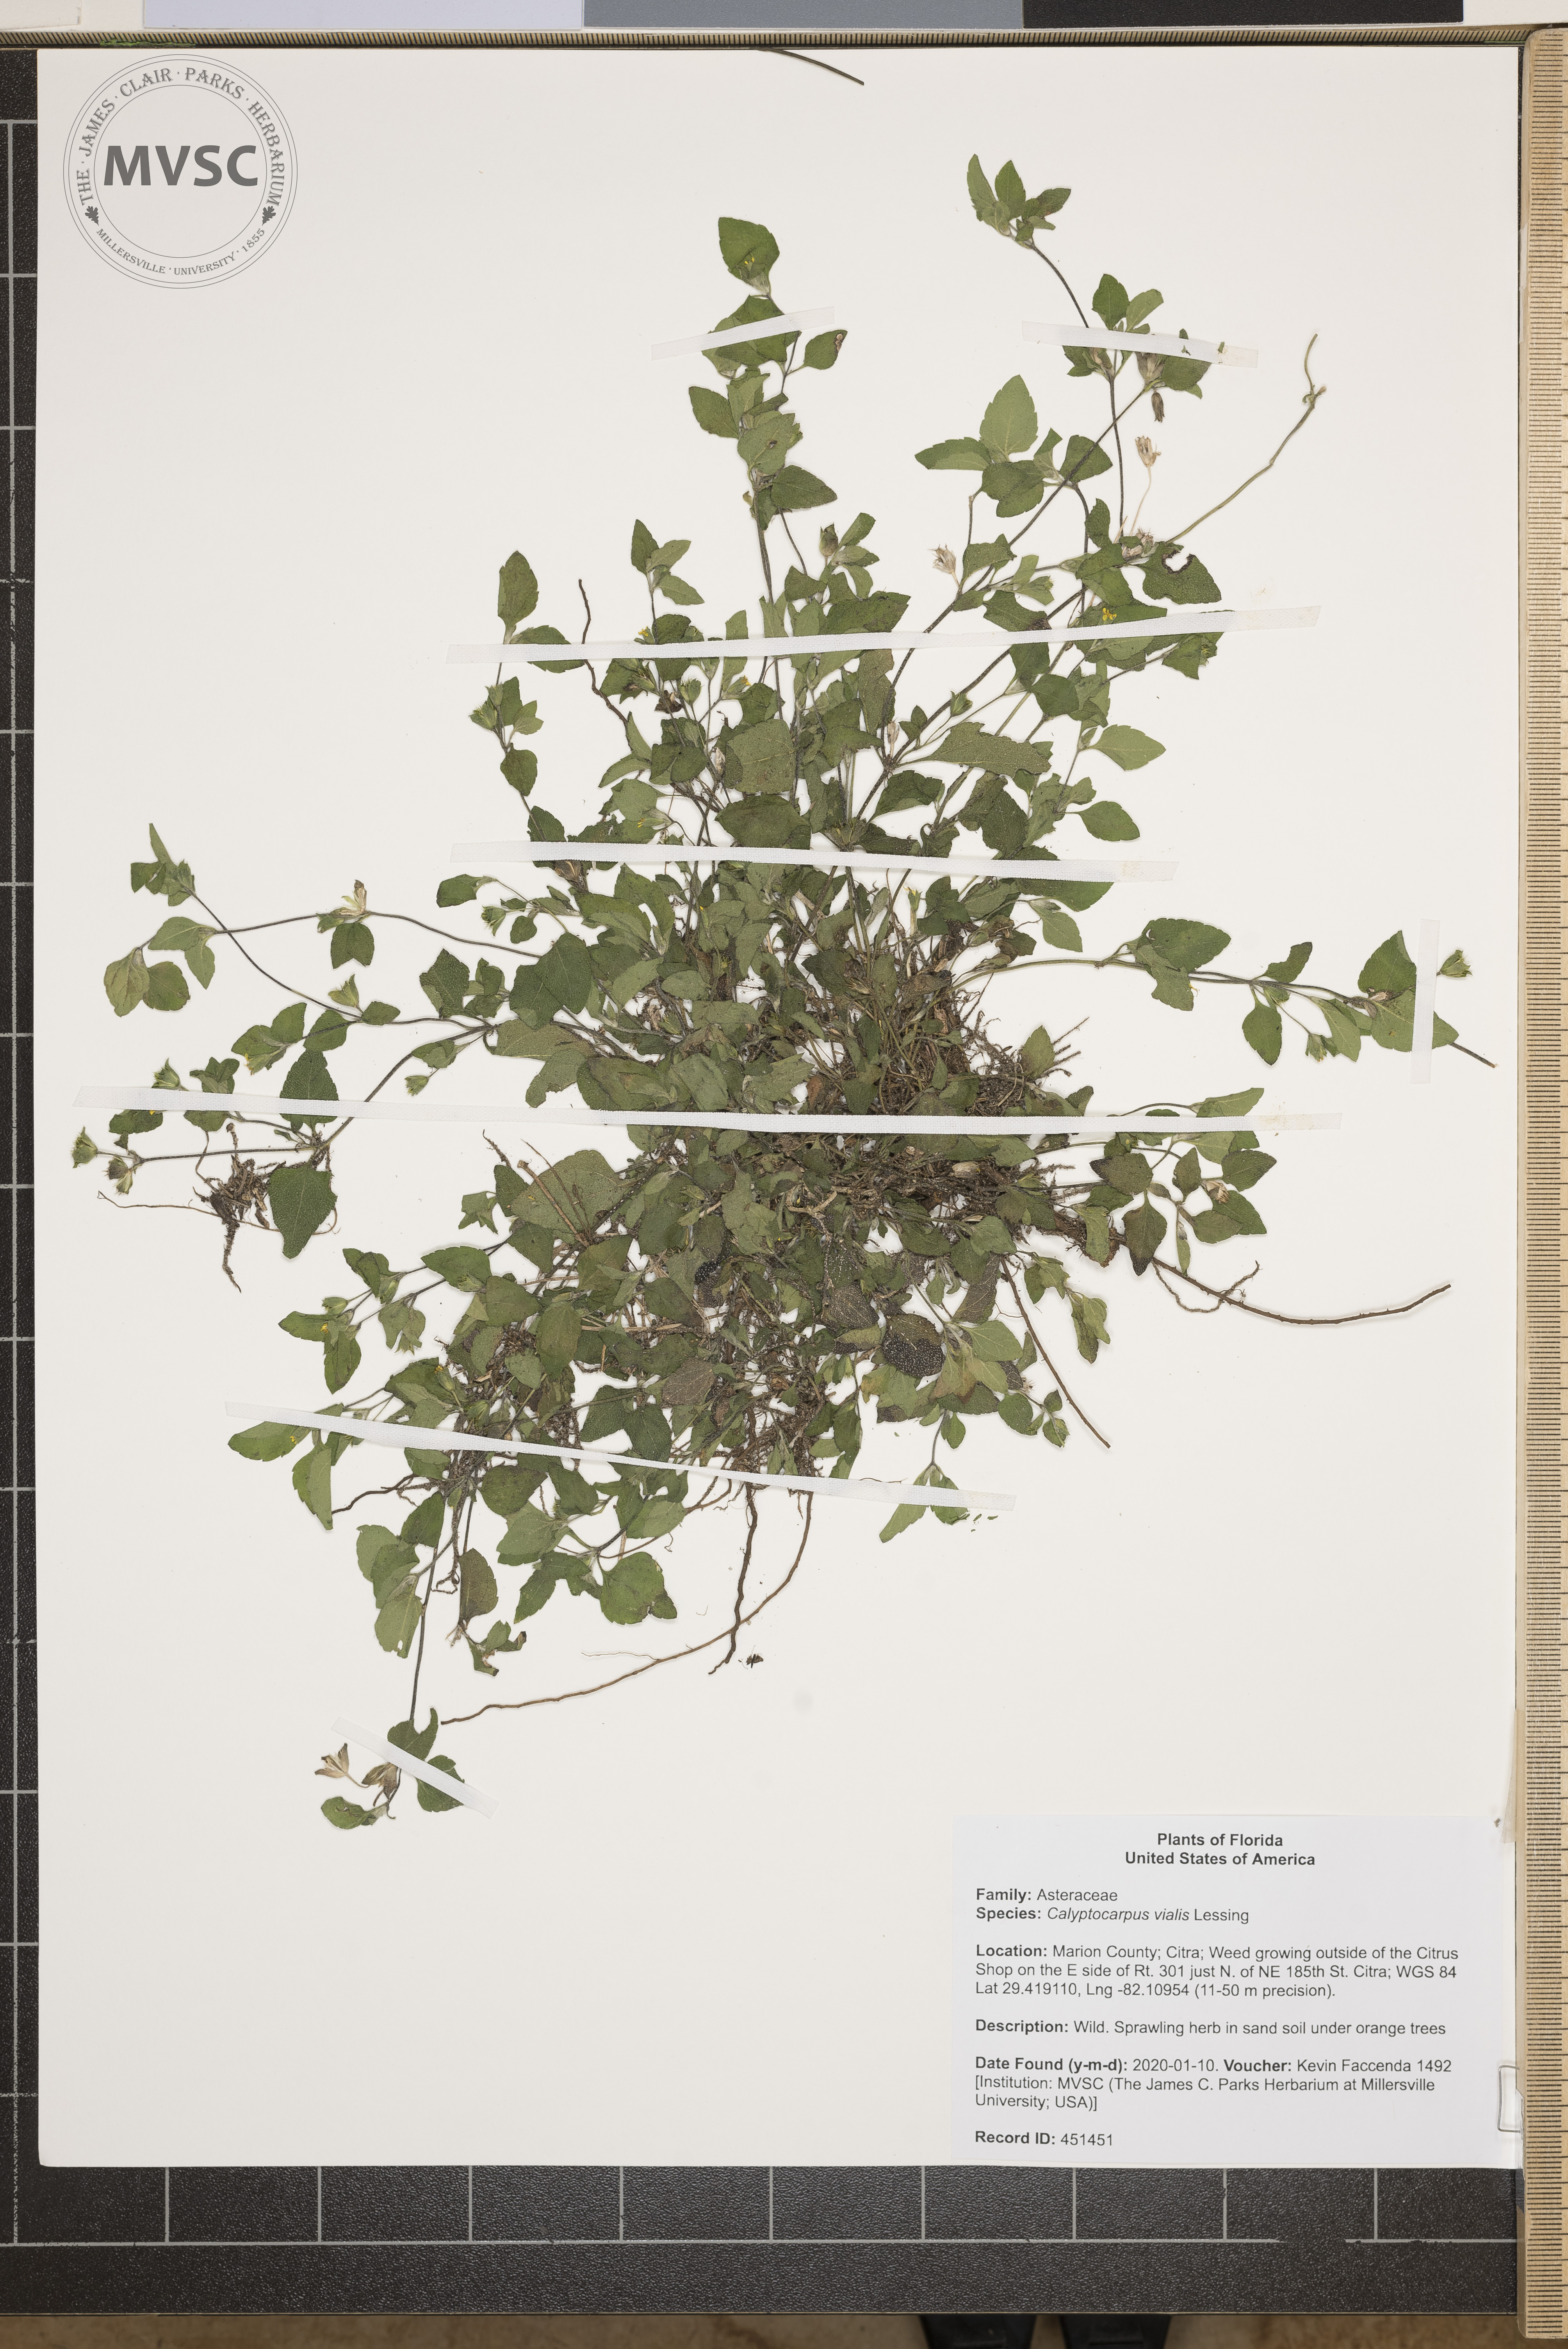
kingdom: Plantae
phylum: Tracheophyta
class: Magnoliopsida
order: Asterales
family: Asteraceae
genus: Calyptocarpus
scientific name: Calyptocarpus vialis
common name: Straggler daisy
